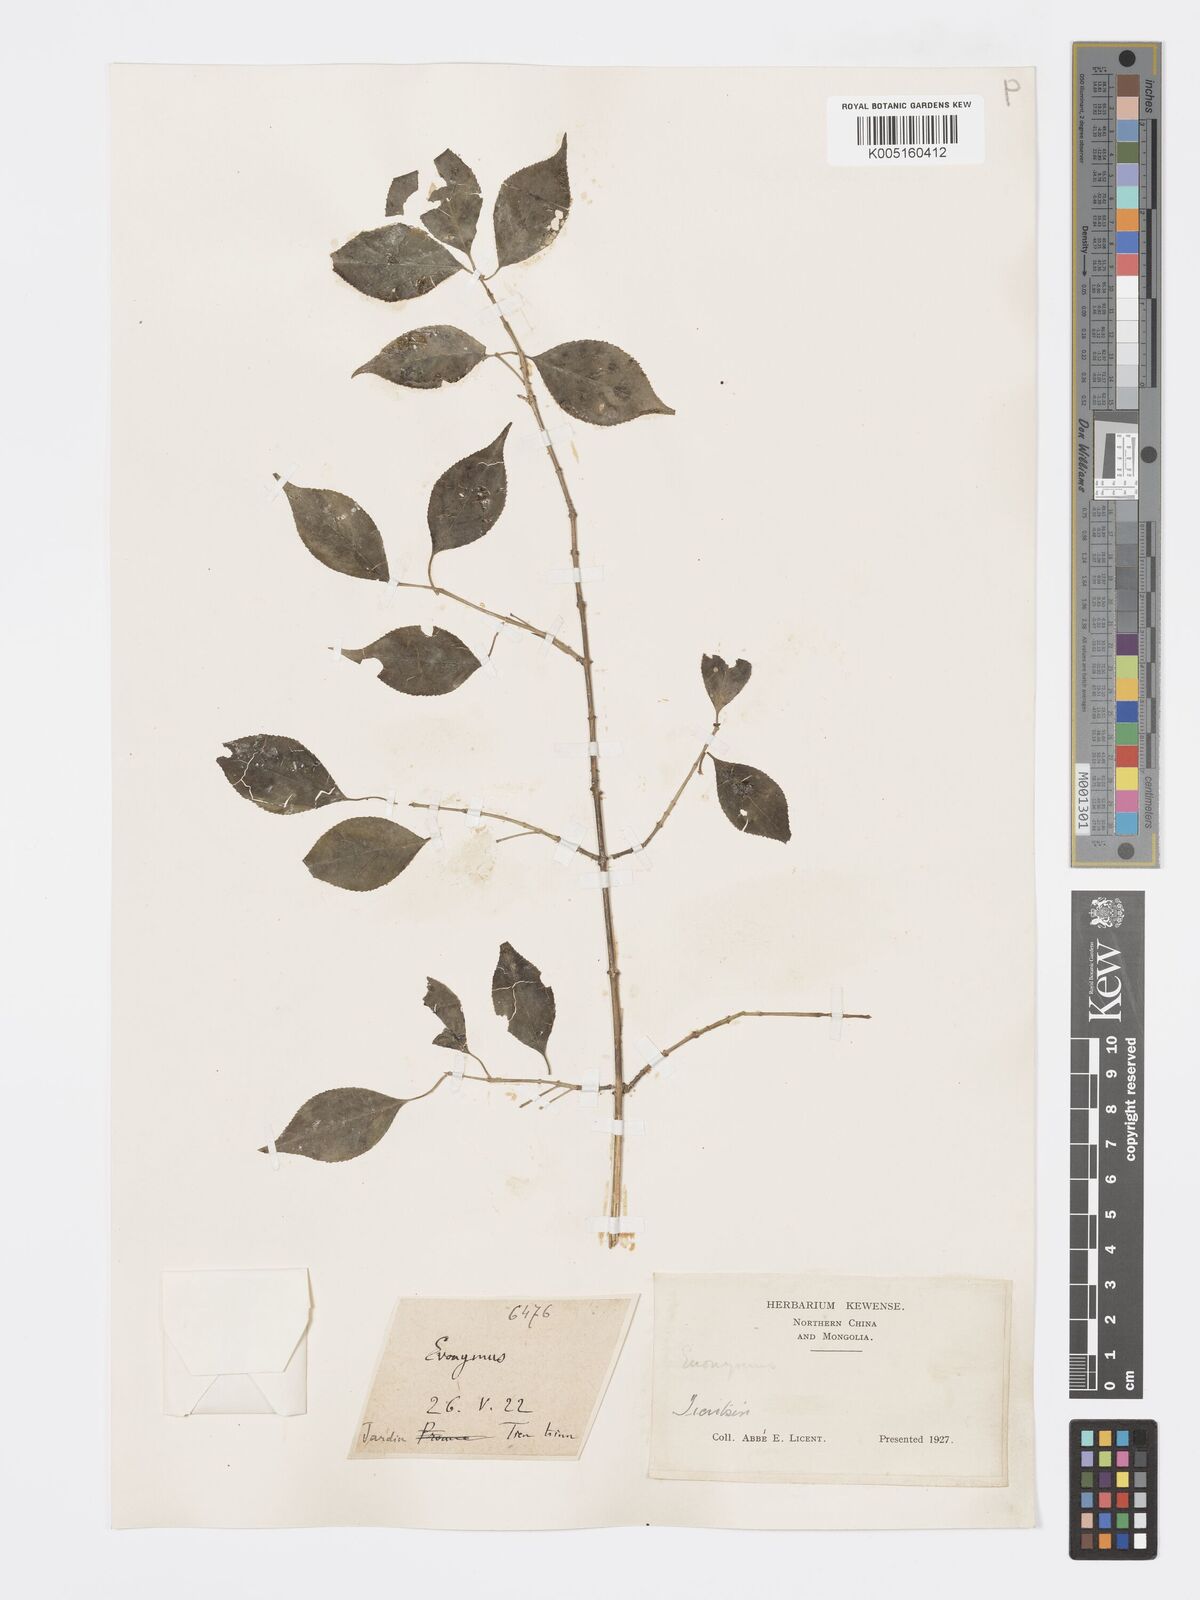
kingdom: Plantae
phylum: Tracheophyta
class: Magnoliopsida
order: Celastrales
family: Celastraceae
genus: Euonymus
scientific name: Euonymus
